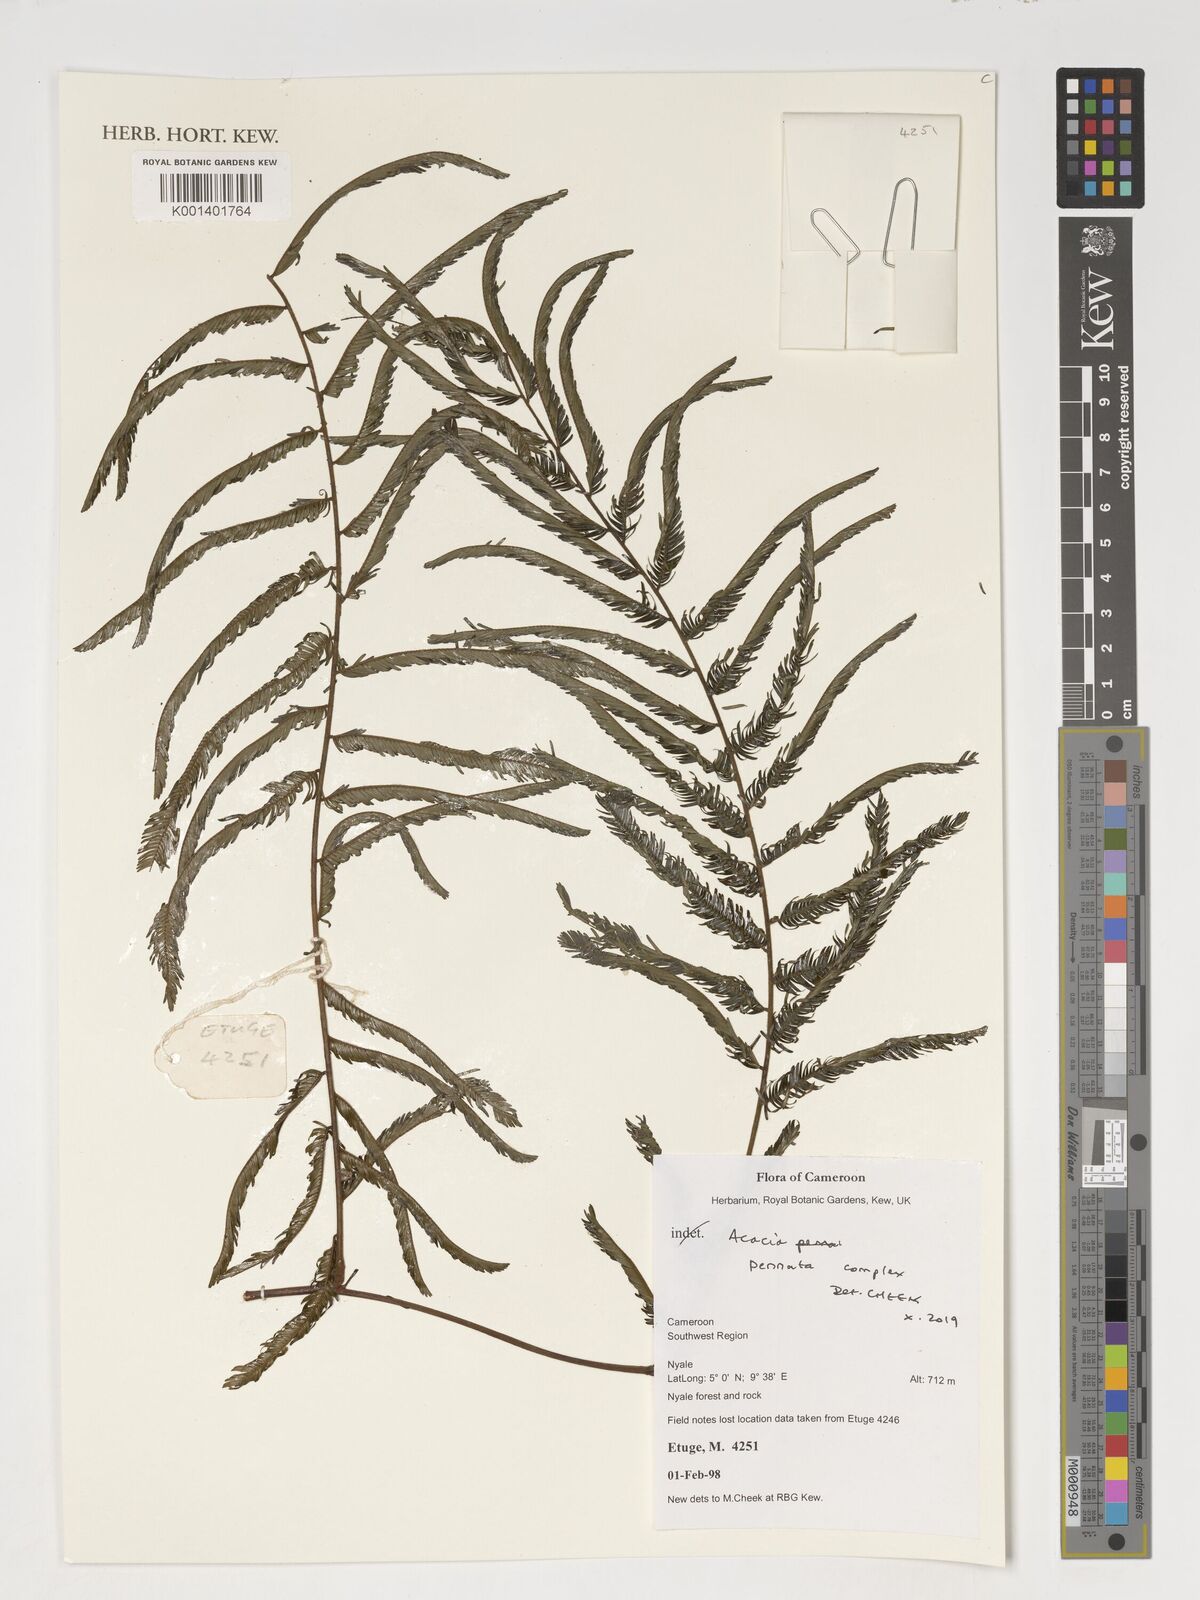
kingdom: Plantae
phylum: Tracheophyta
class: Magnoliopsida
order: Fabales
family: Fabaceae
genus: Senegalia
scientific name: Senegalia pennata
